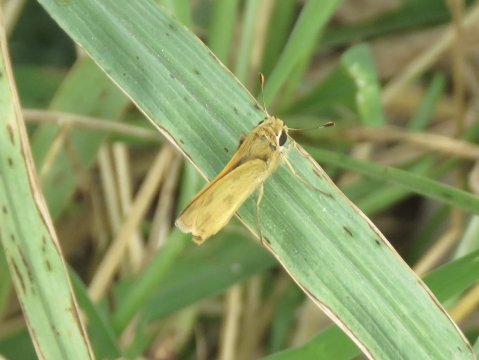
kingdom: Animalia
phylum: Arthropoda
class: Insecta
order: Lepidoptera
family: Hesperiidae
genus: Polites
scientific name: Polites vibex
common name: Whirlabout
